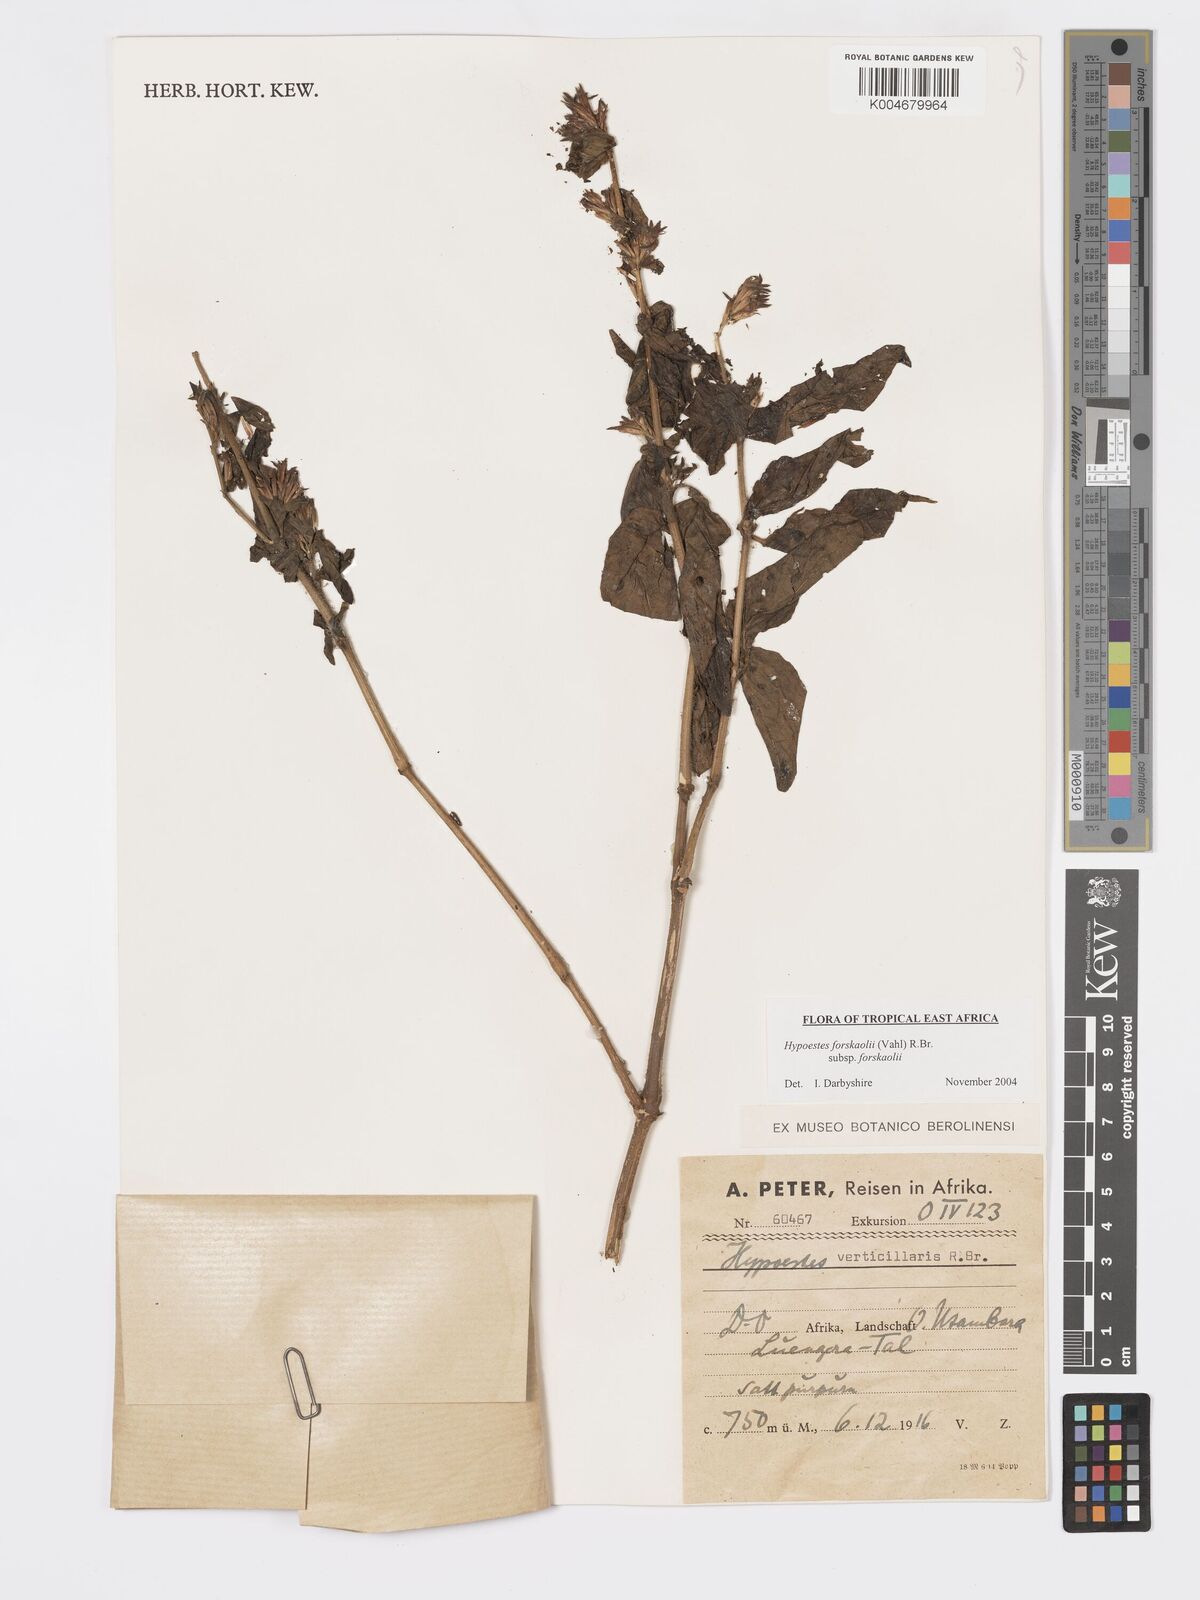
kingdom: Plantae
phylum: Tracheophyta
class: Magnoliopsida
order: Lamiales
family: Acanthaceae
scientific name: Acanthaceae
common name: Acanthaceae
